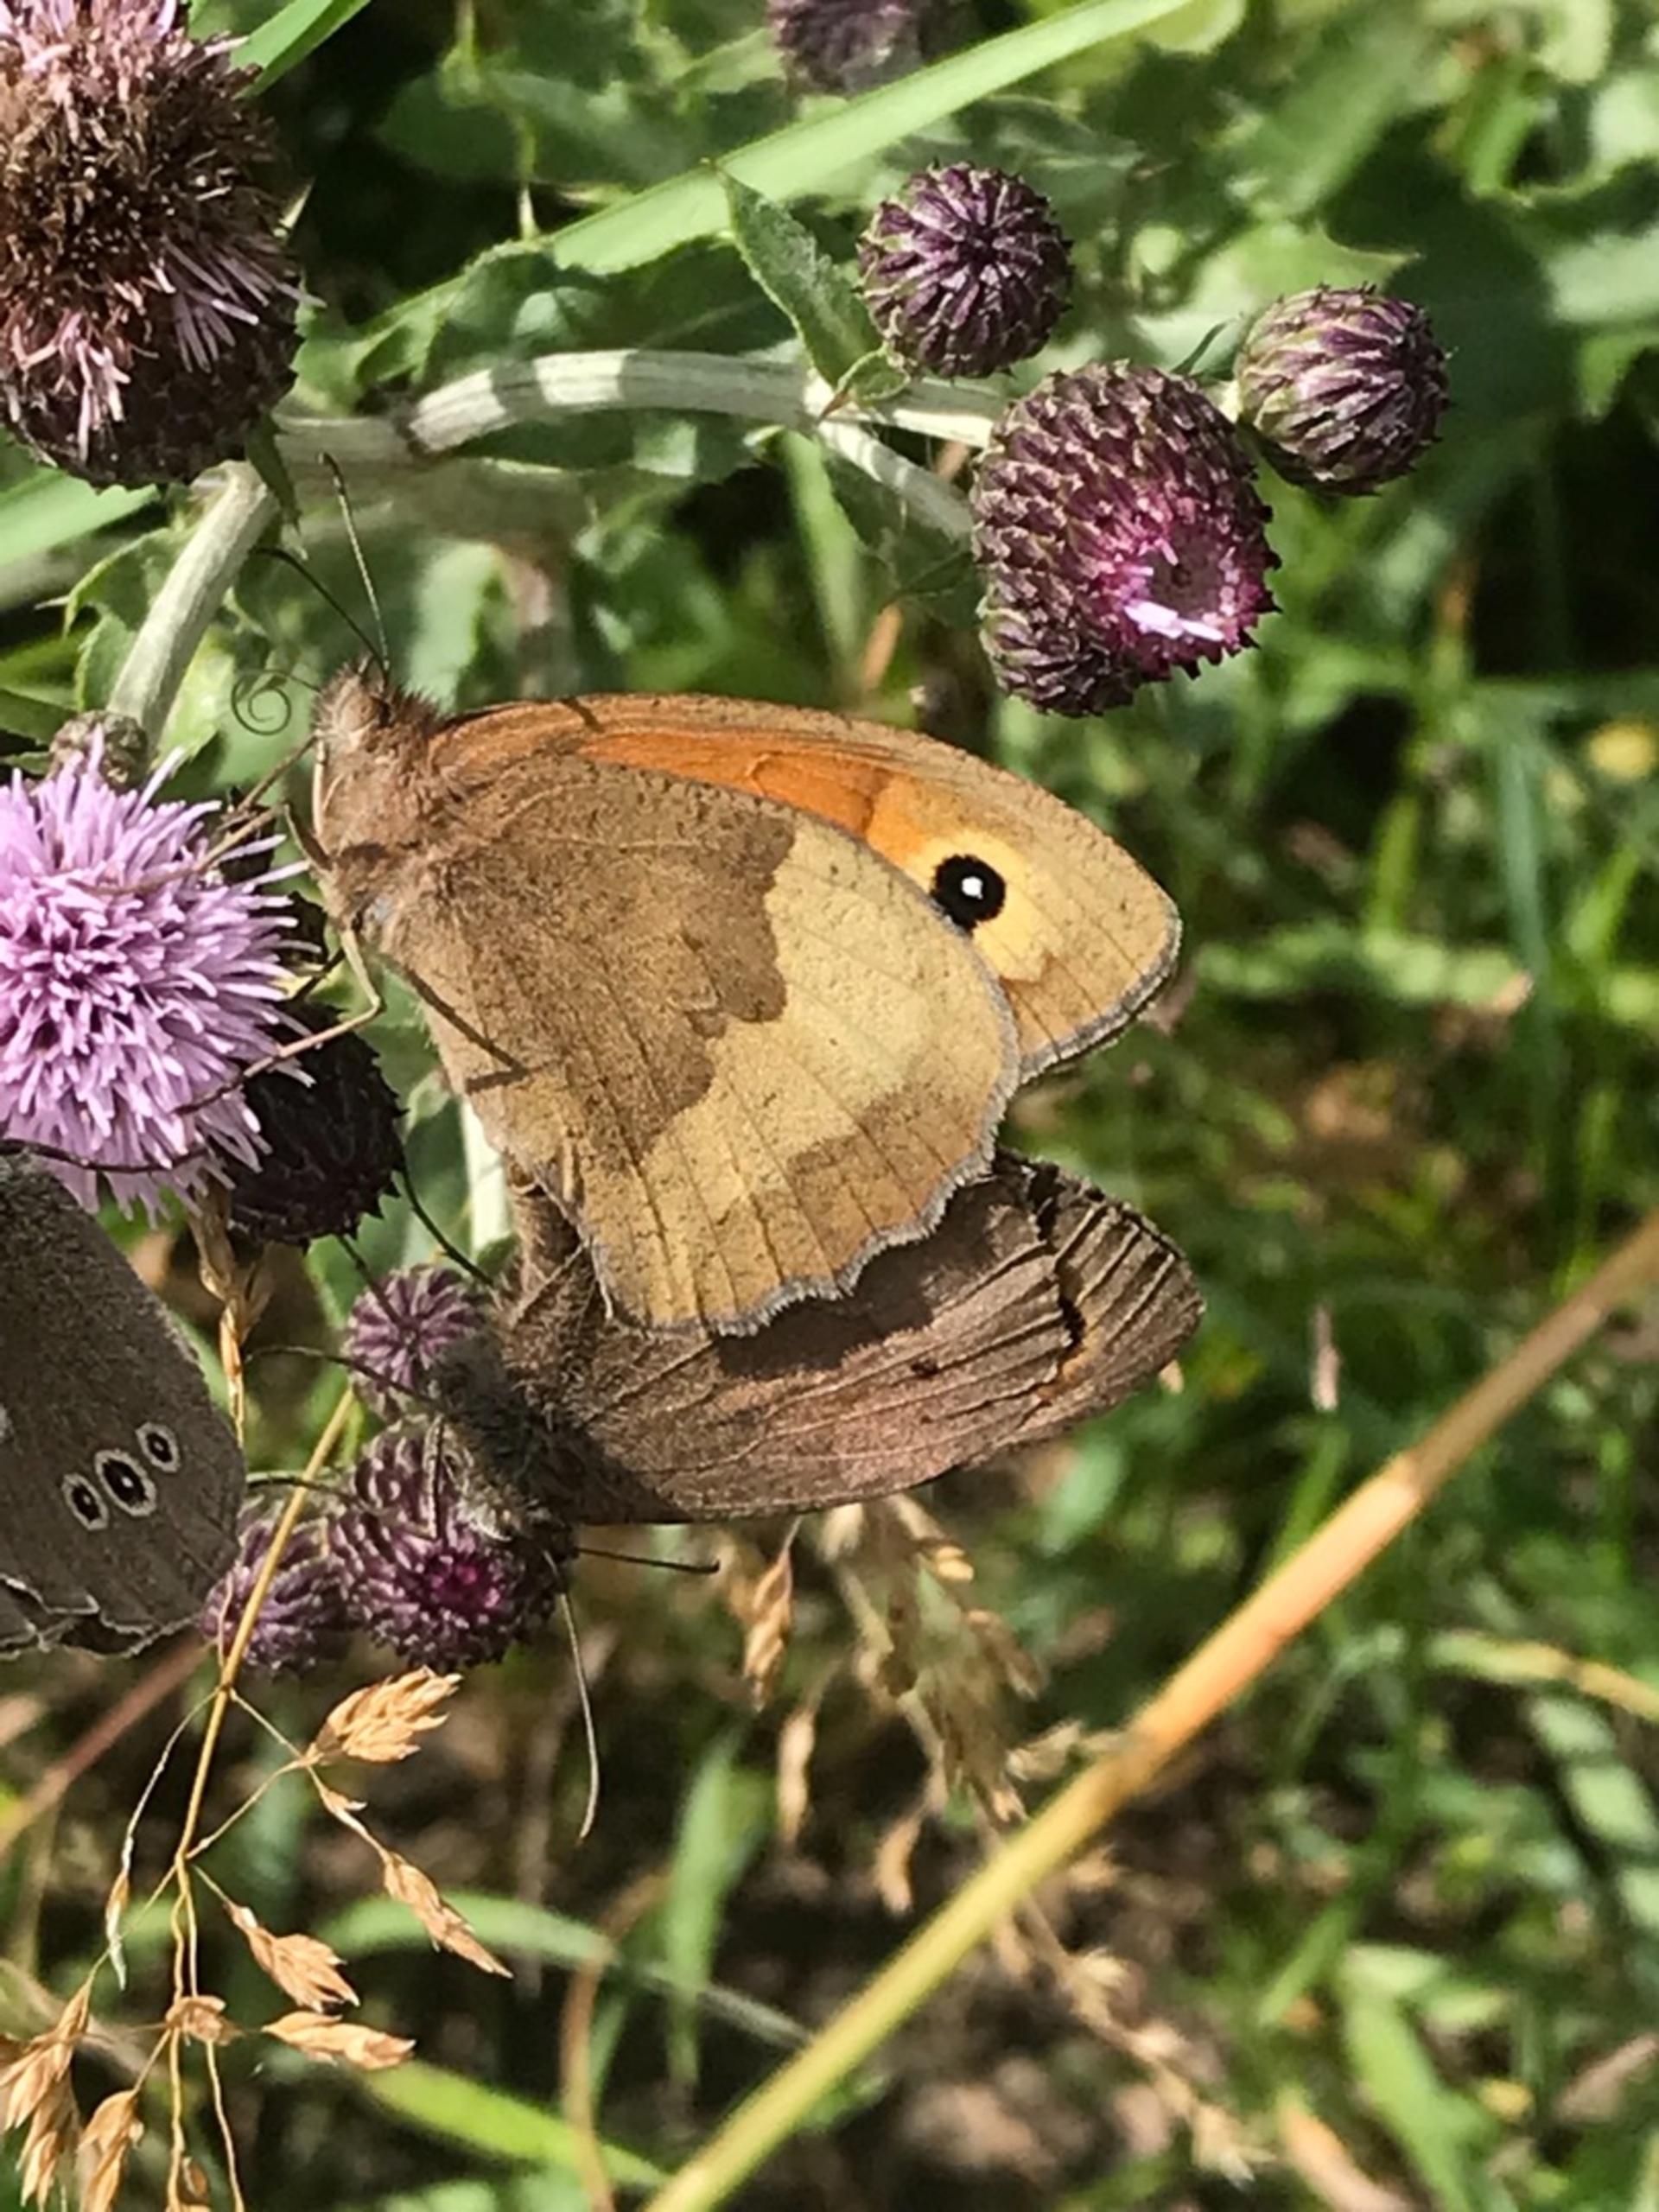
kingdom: Animalia
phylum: Arthropoda
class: Insecta
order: Lepidoptera
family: Nymphalidae
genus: Maniola
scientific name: Maniola jurtina
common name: Græsrandøje
